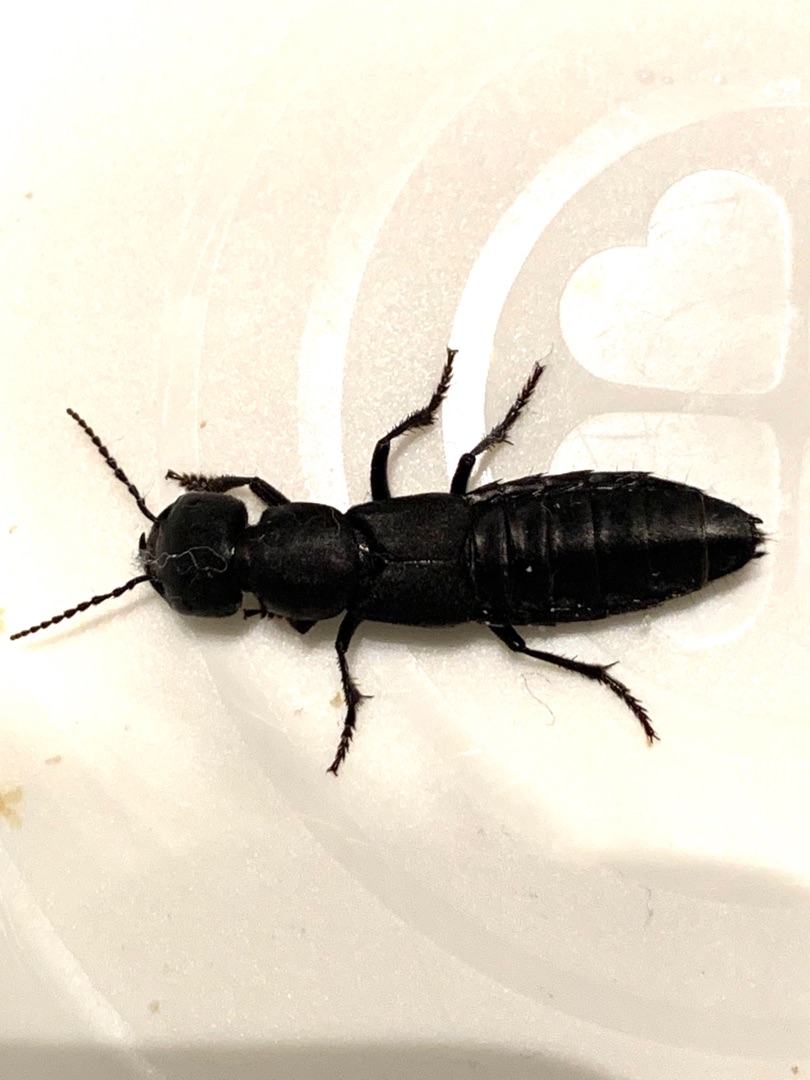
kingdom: Animalia
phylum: Arthropoda
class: Insecta
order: Coleoptera
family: Staphylinidae
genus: Ocypus
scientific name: Ocypus olens
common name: Stor rovbille
